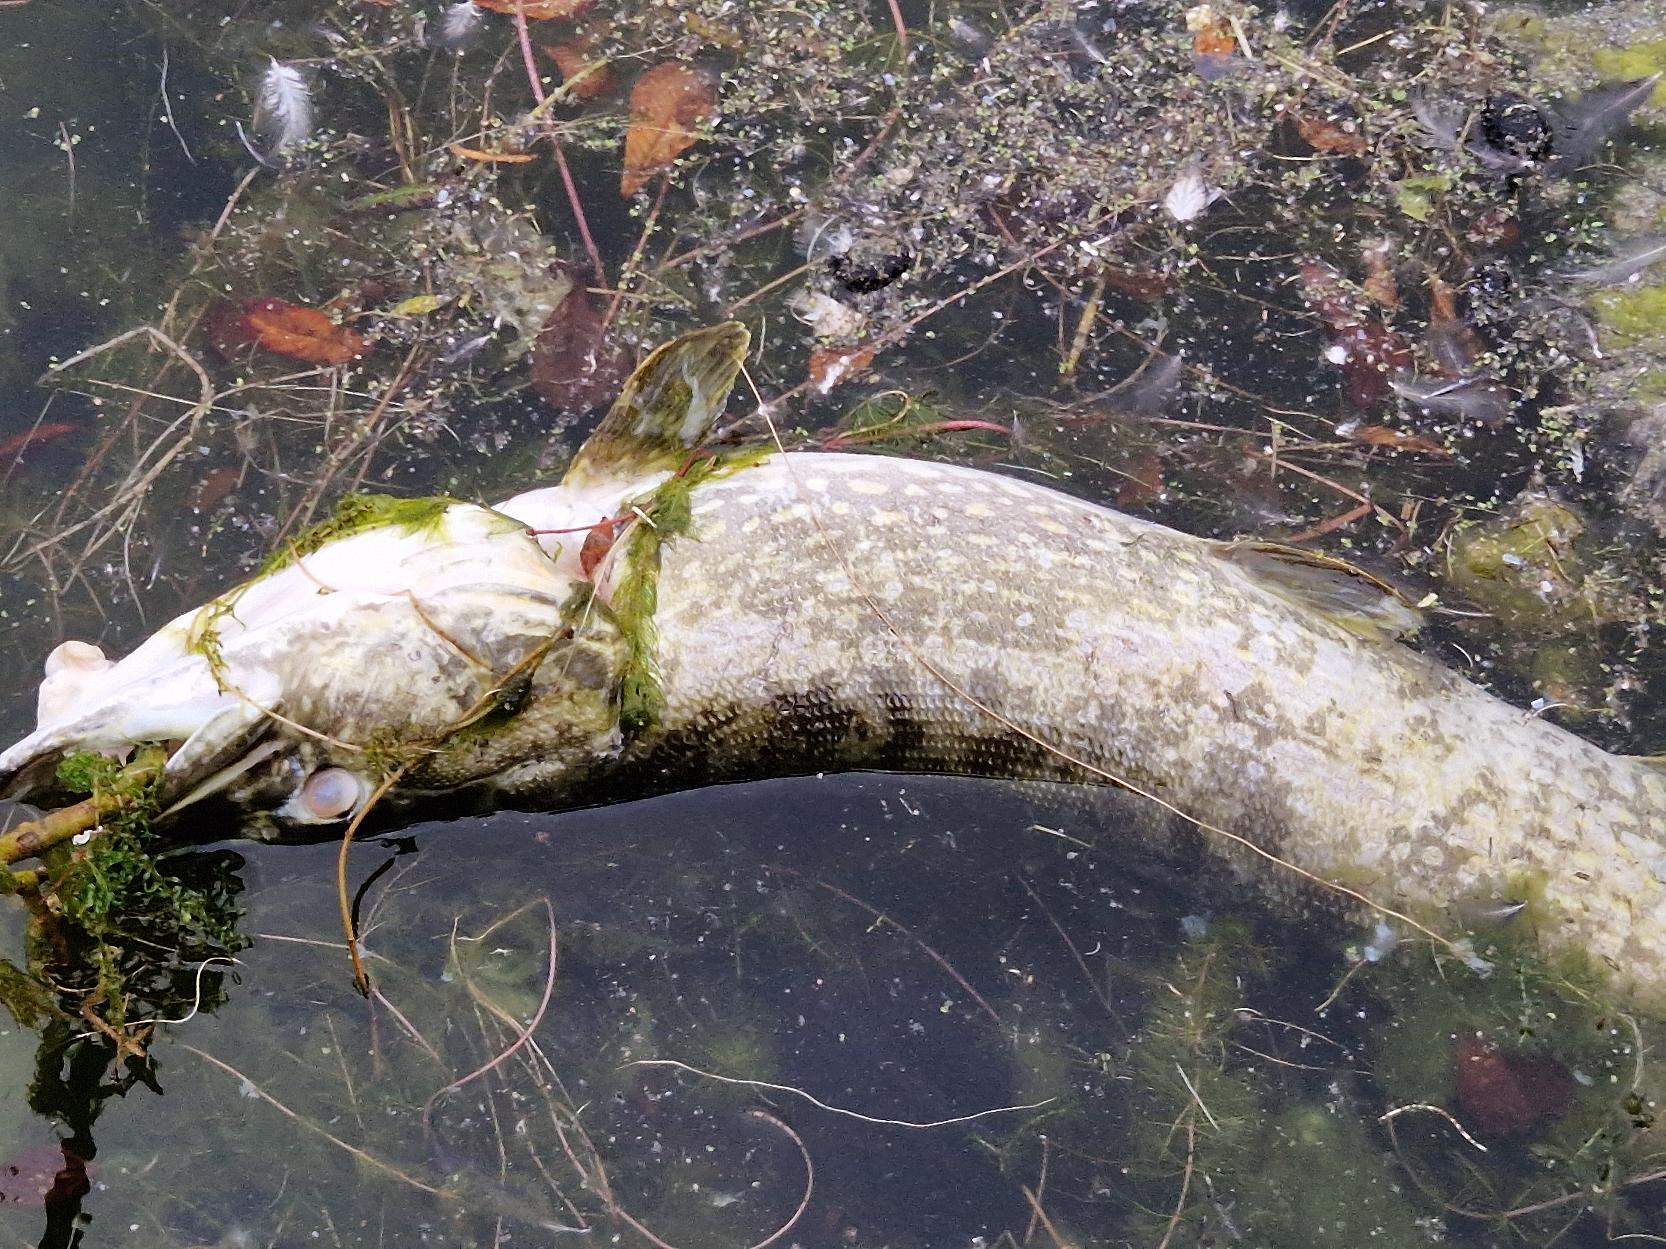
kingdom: Animalia
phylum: Chordata
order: Esociformes
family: Esocidae
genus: Esox
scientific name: Esox lucius
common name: Gedde
